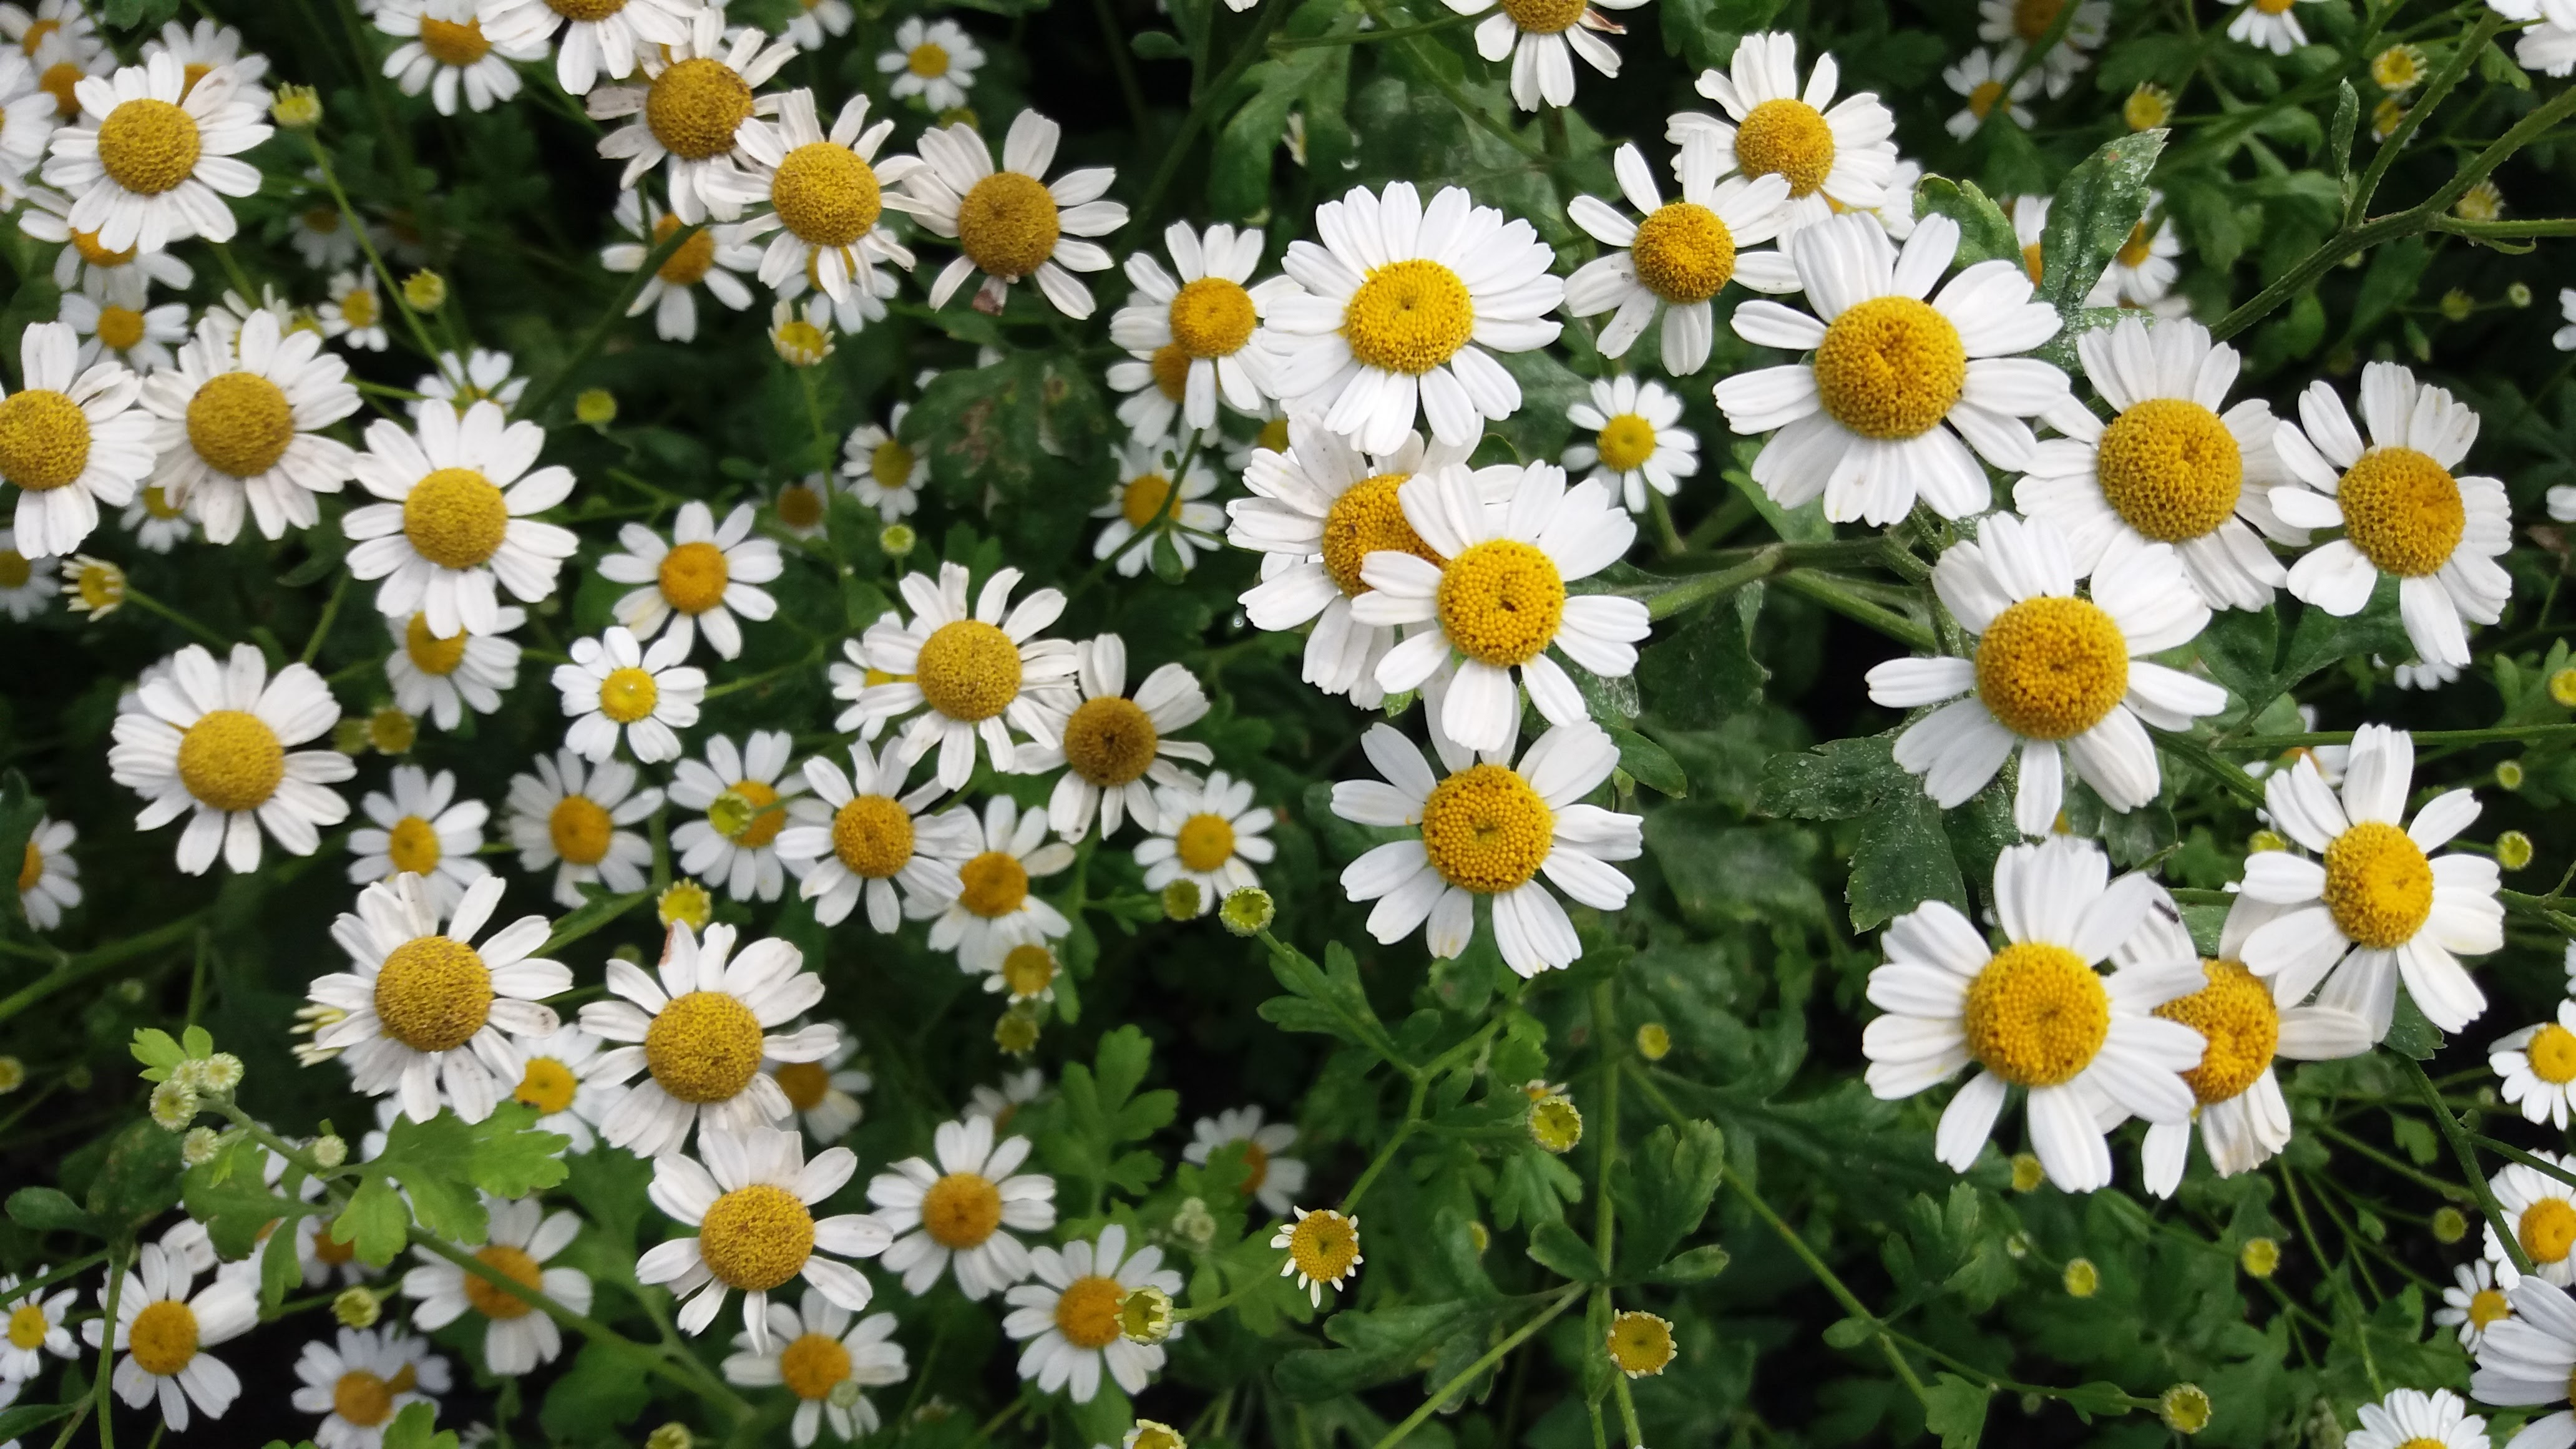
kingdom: Plantae
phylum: Tracheophyta
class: Magnoliopsida
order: Asterales
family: Asteraceae
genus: Tanacetum
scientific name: Tanacetum parthenium
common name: Feverfew
